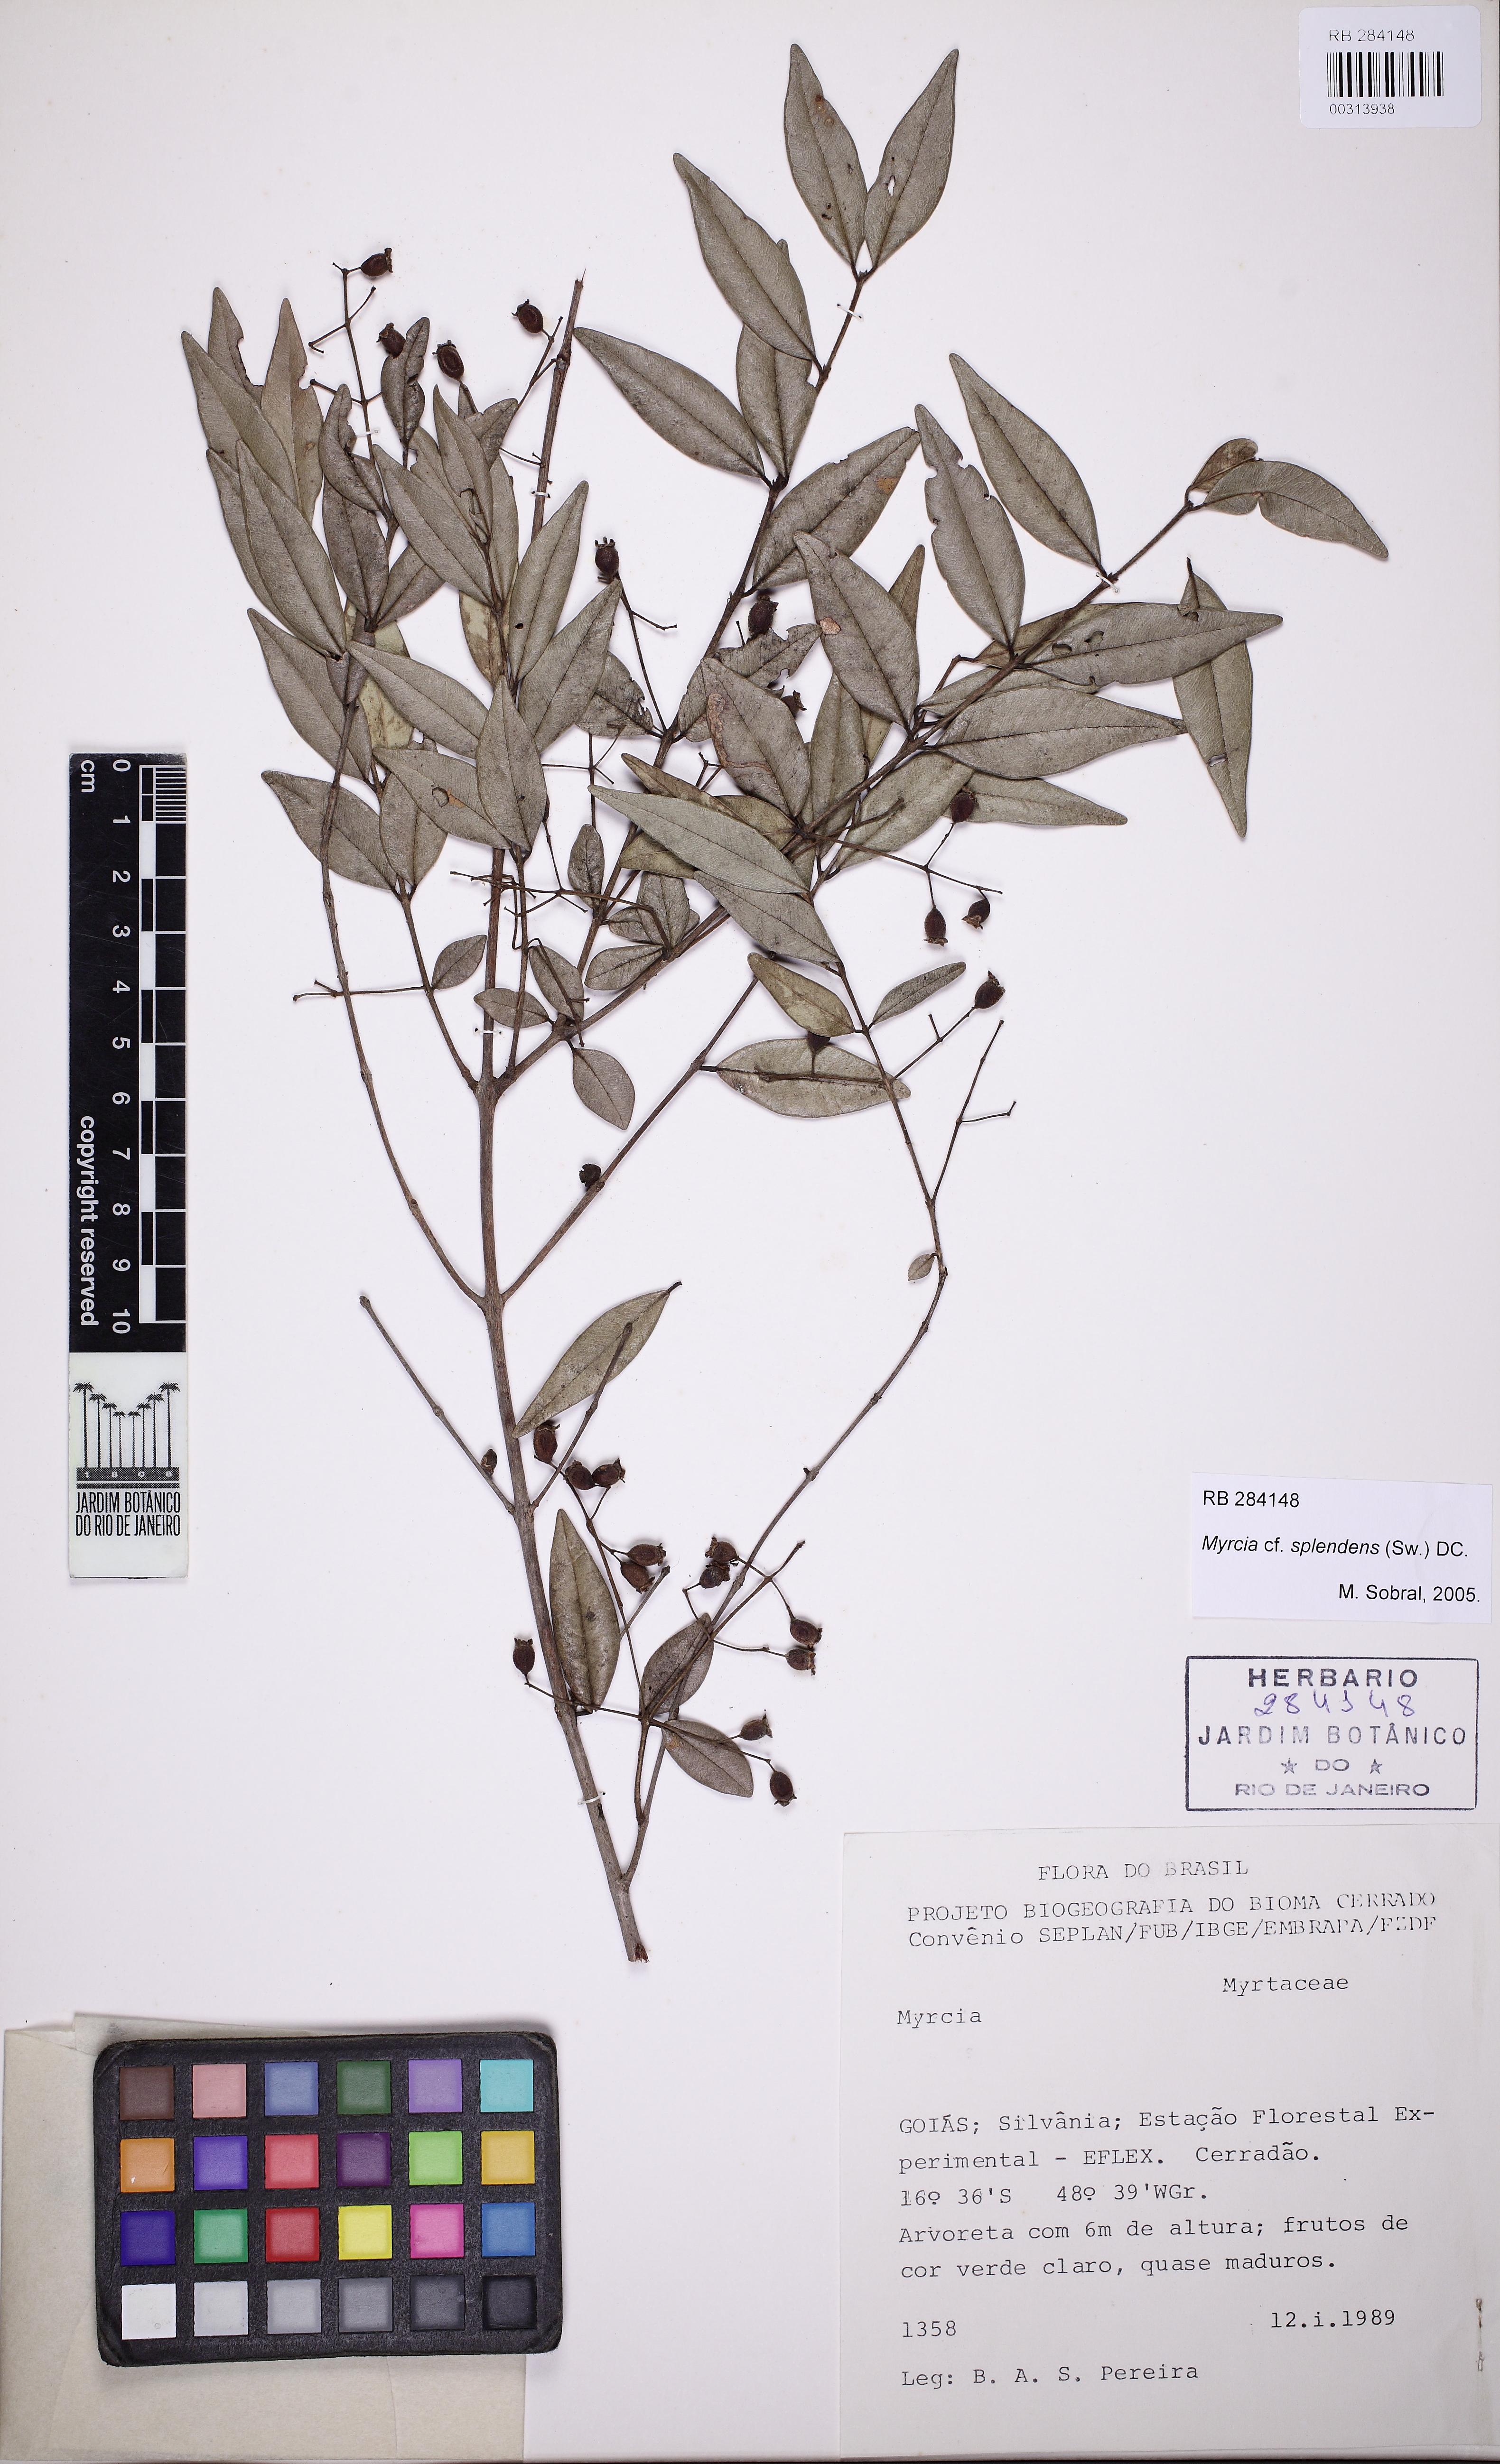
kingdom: Plantae
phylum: Tracheophyta
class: Magnoliopsida
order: Myrtales
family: Myrtaceae
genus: Myrcia
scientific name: Myrcia splendens
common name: Surinam cherry
